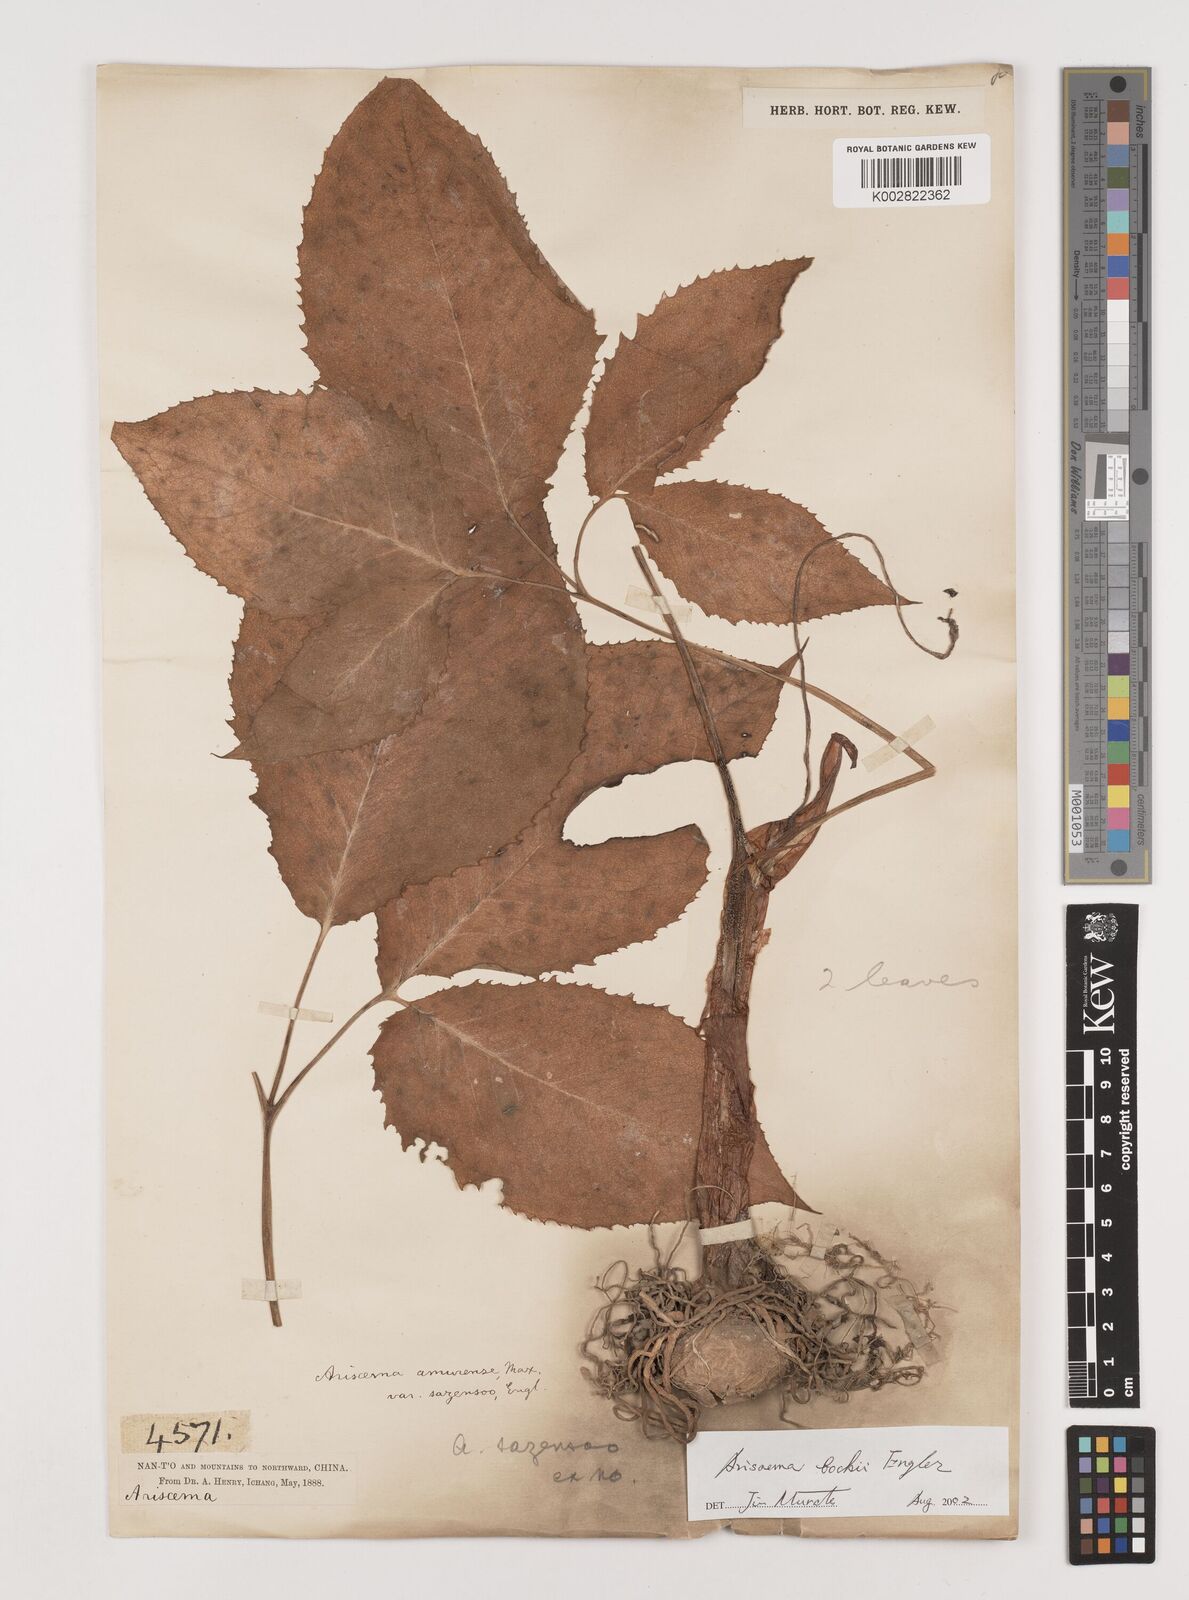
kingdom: Plantae
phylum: Tracheophyta
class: Liliopsida
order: Alismatales
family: Araceae
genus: Arisaema
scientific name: Arisaema bockii
